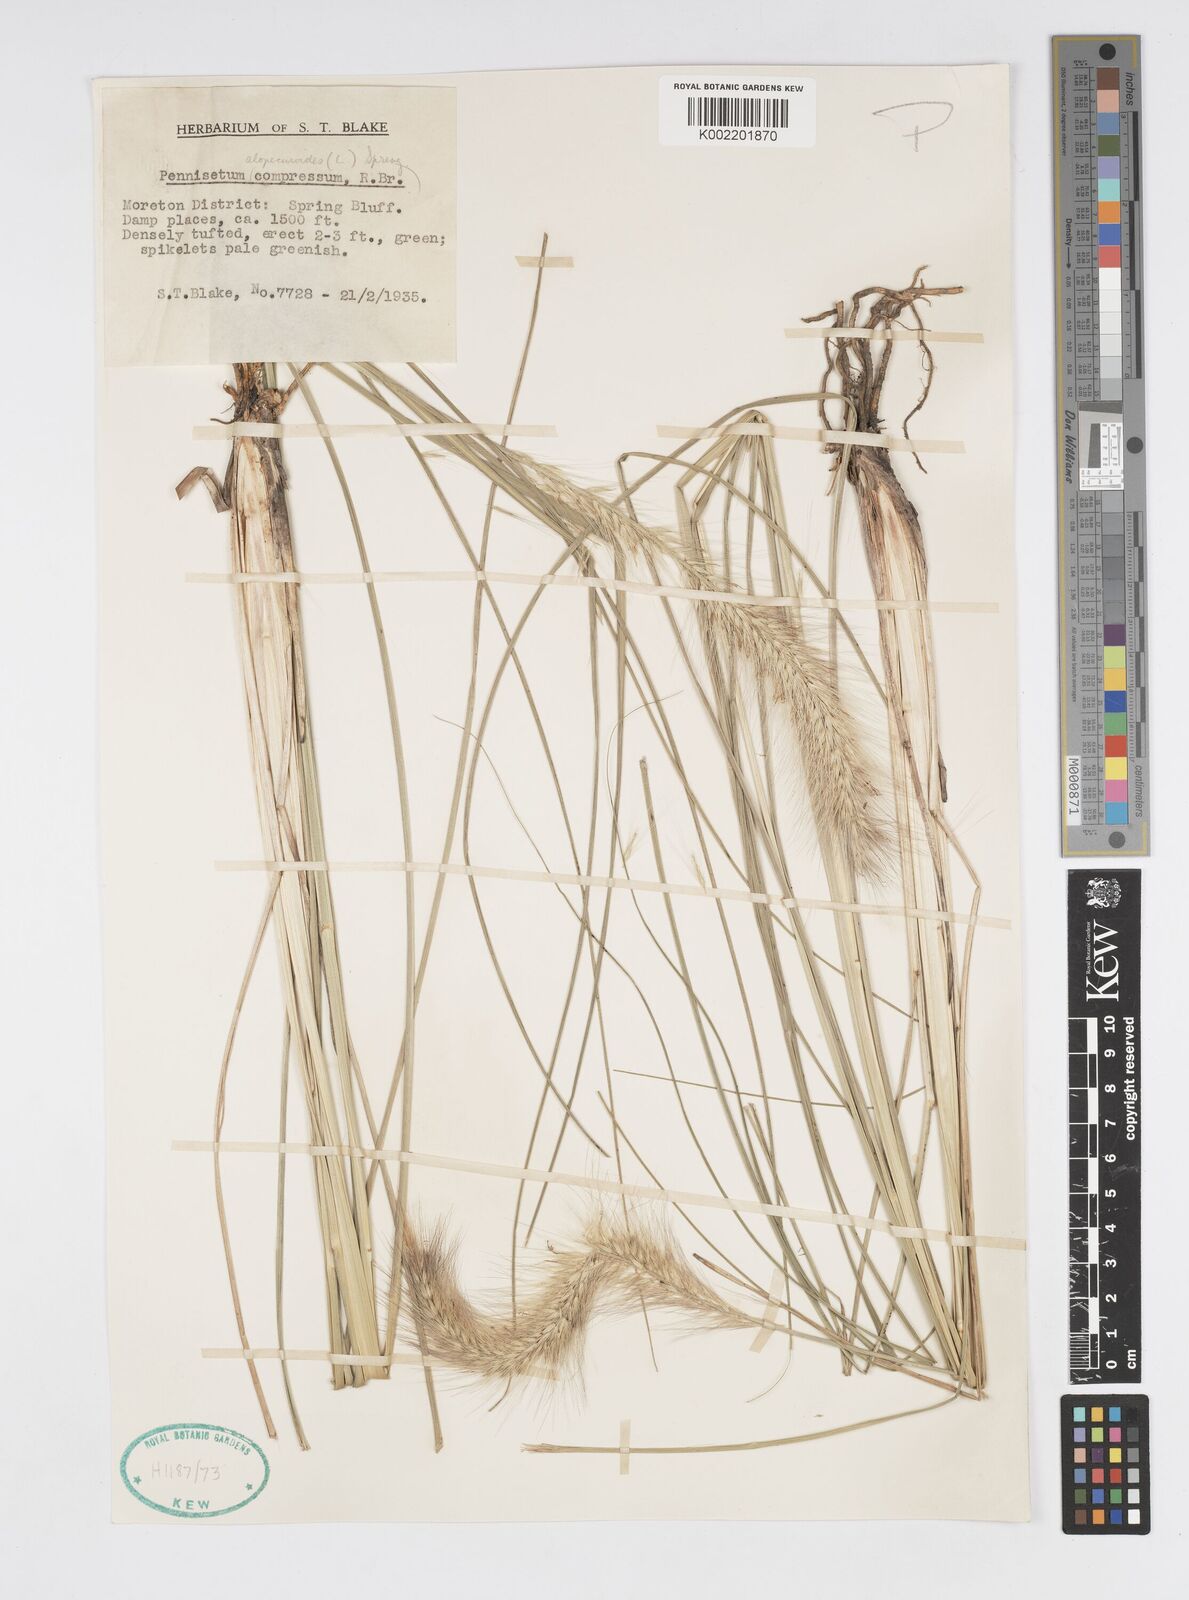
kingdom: Plantae
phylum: Tracheophyta
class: Liliopsida
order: Poales
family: Poaceae
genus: Cenchrus
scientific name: Cenchrus alopecuroides
